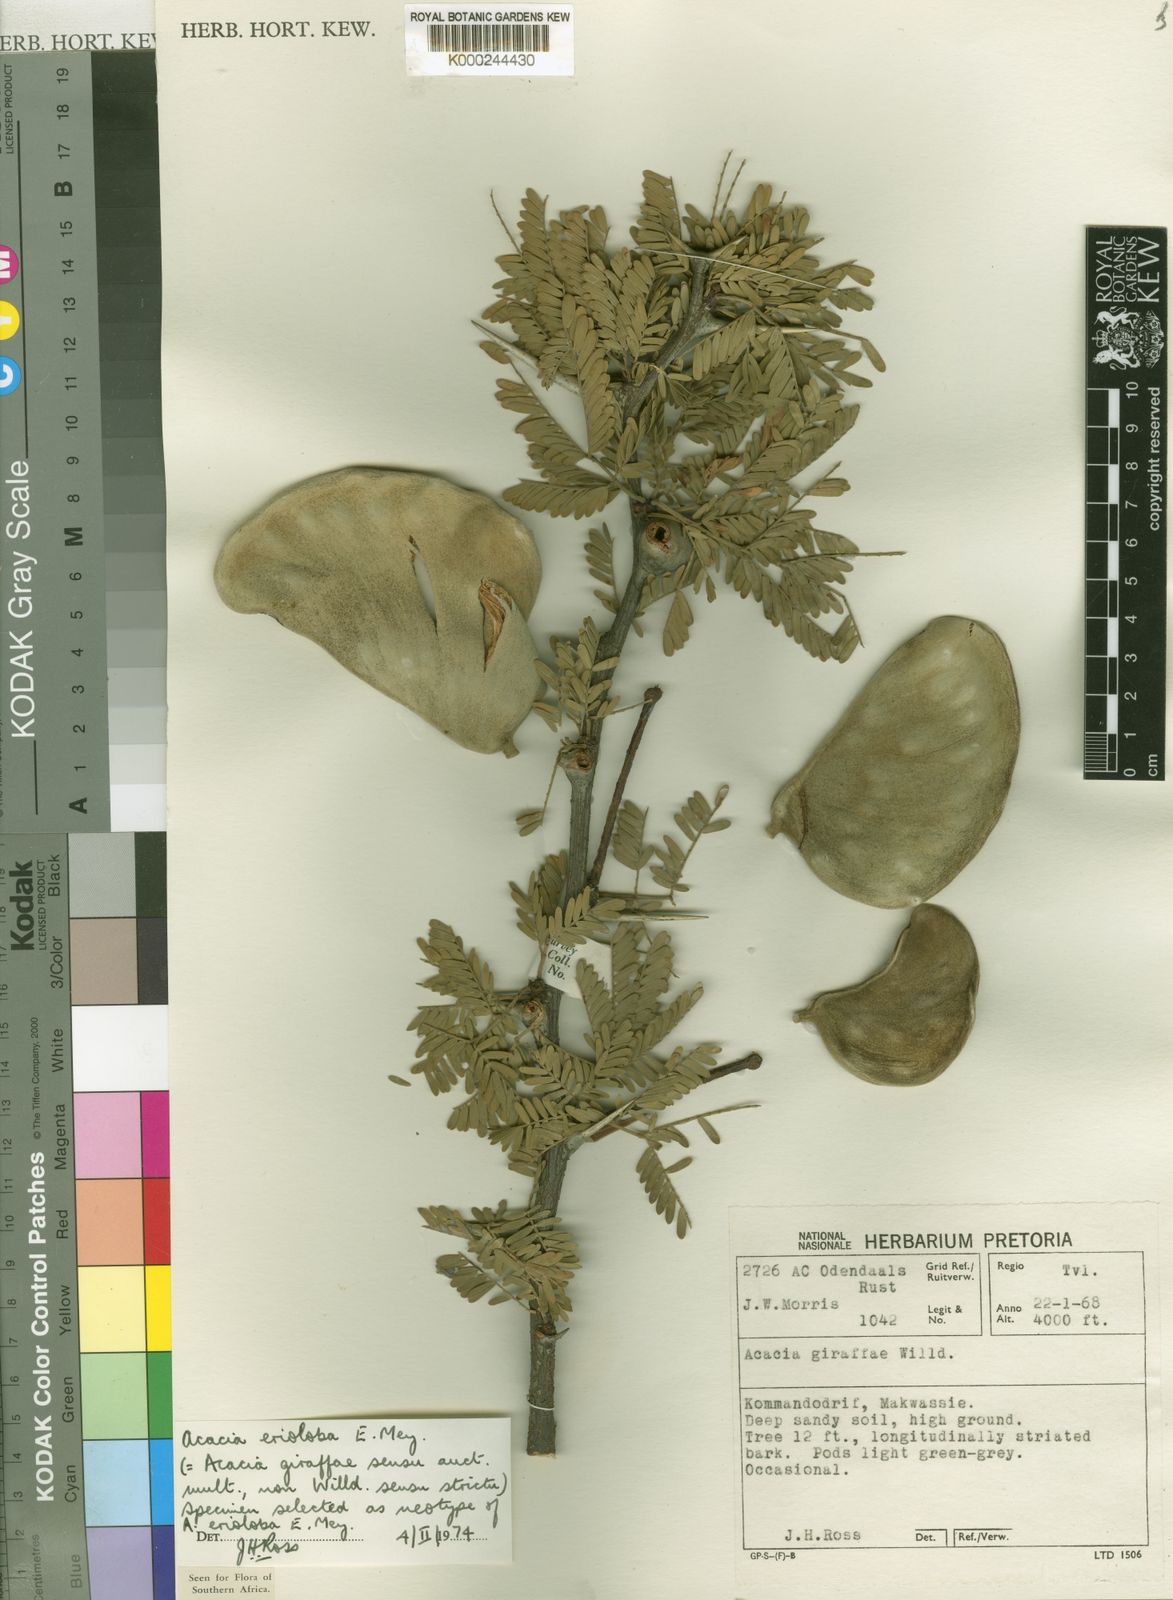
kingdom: Plantae
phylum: Tracheophyta
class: Magnoliopsida
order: Fabales
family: Fabaceae
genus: Vachellia
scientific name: Vachellia erioloba
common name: Camel thorn
